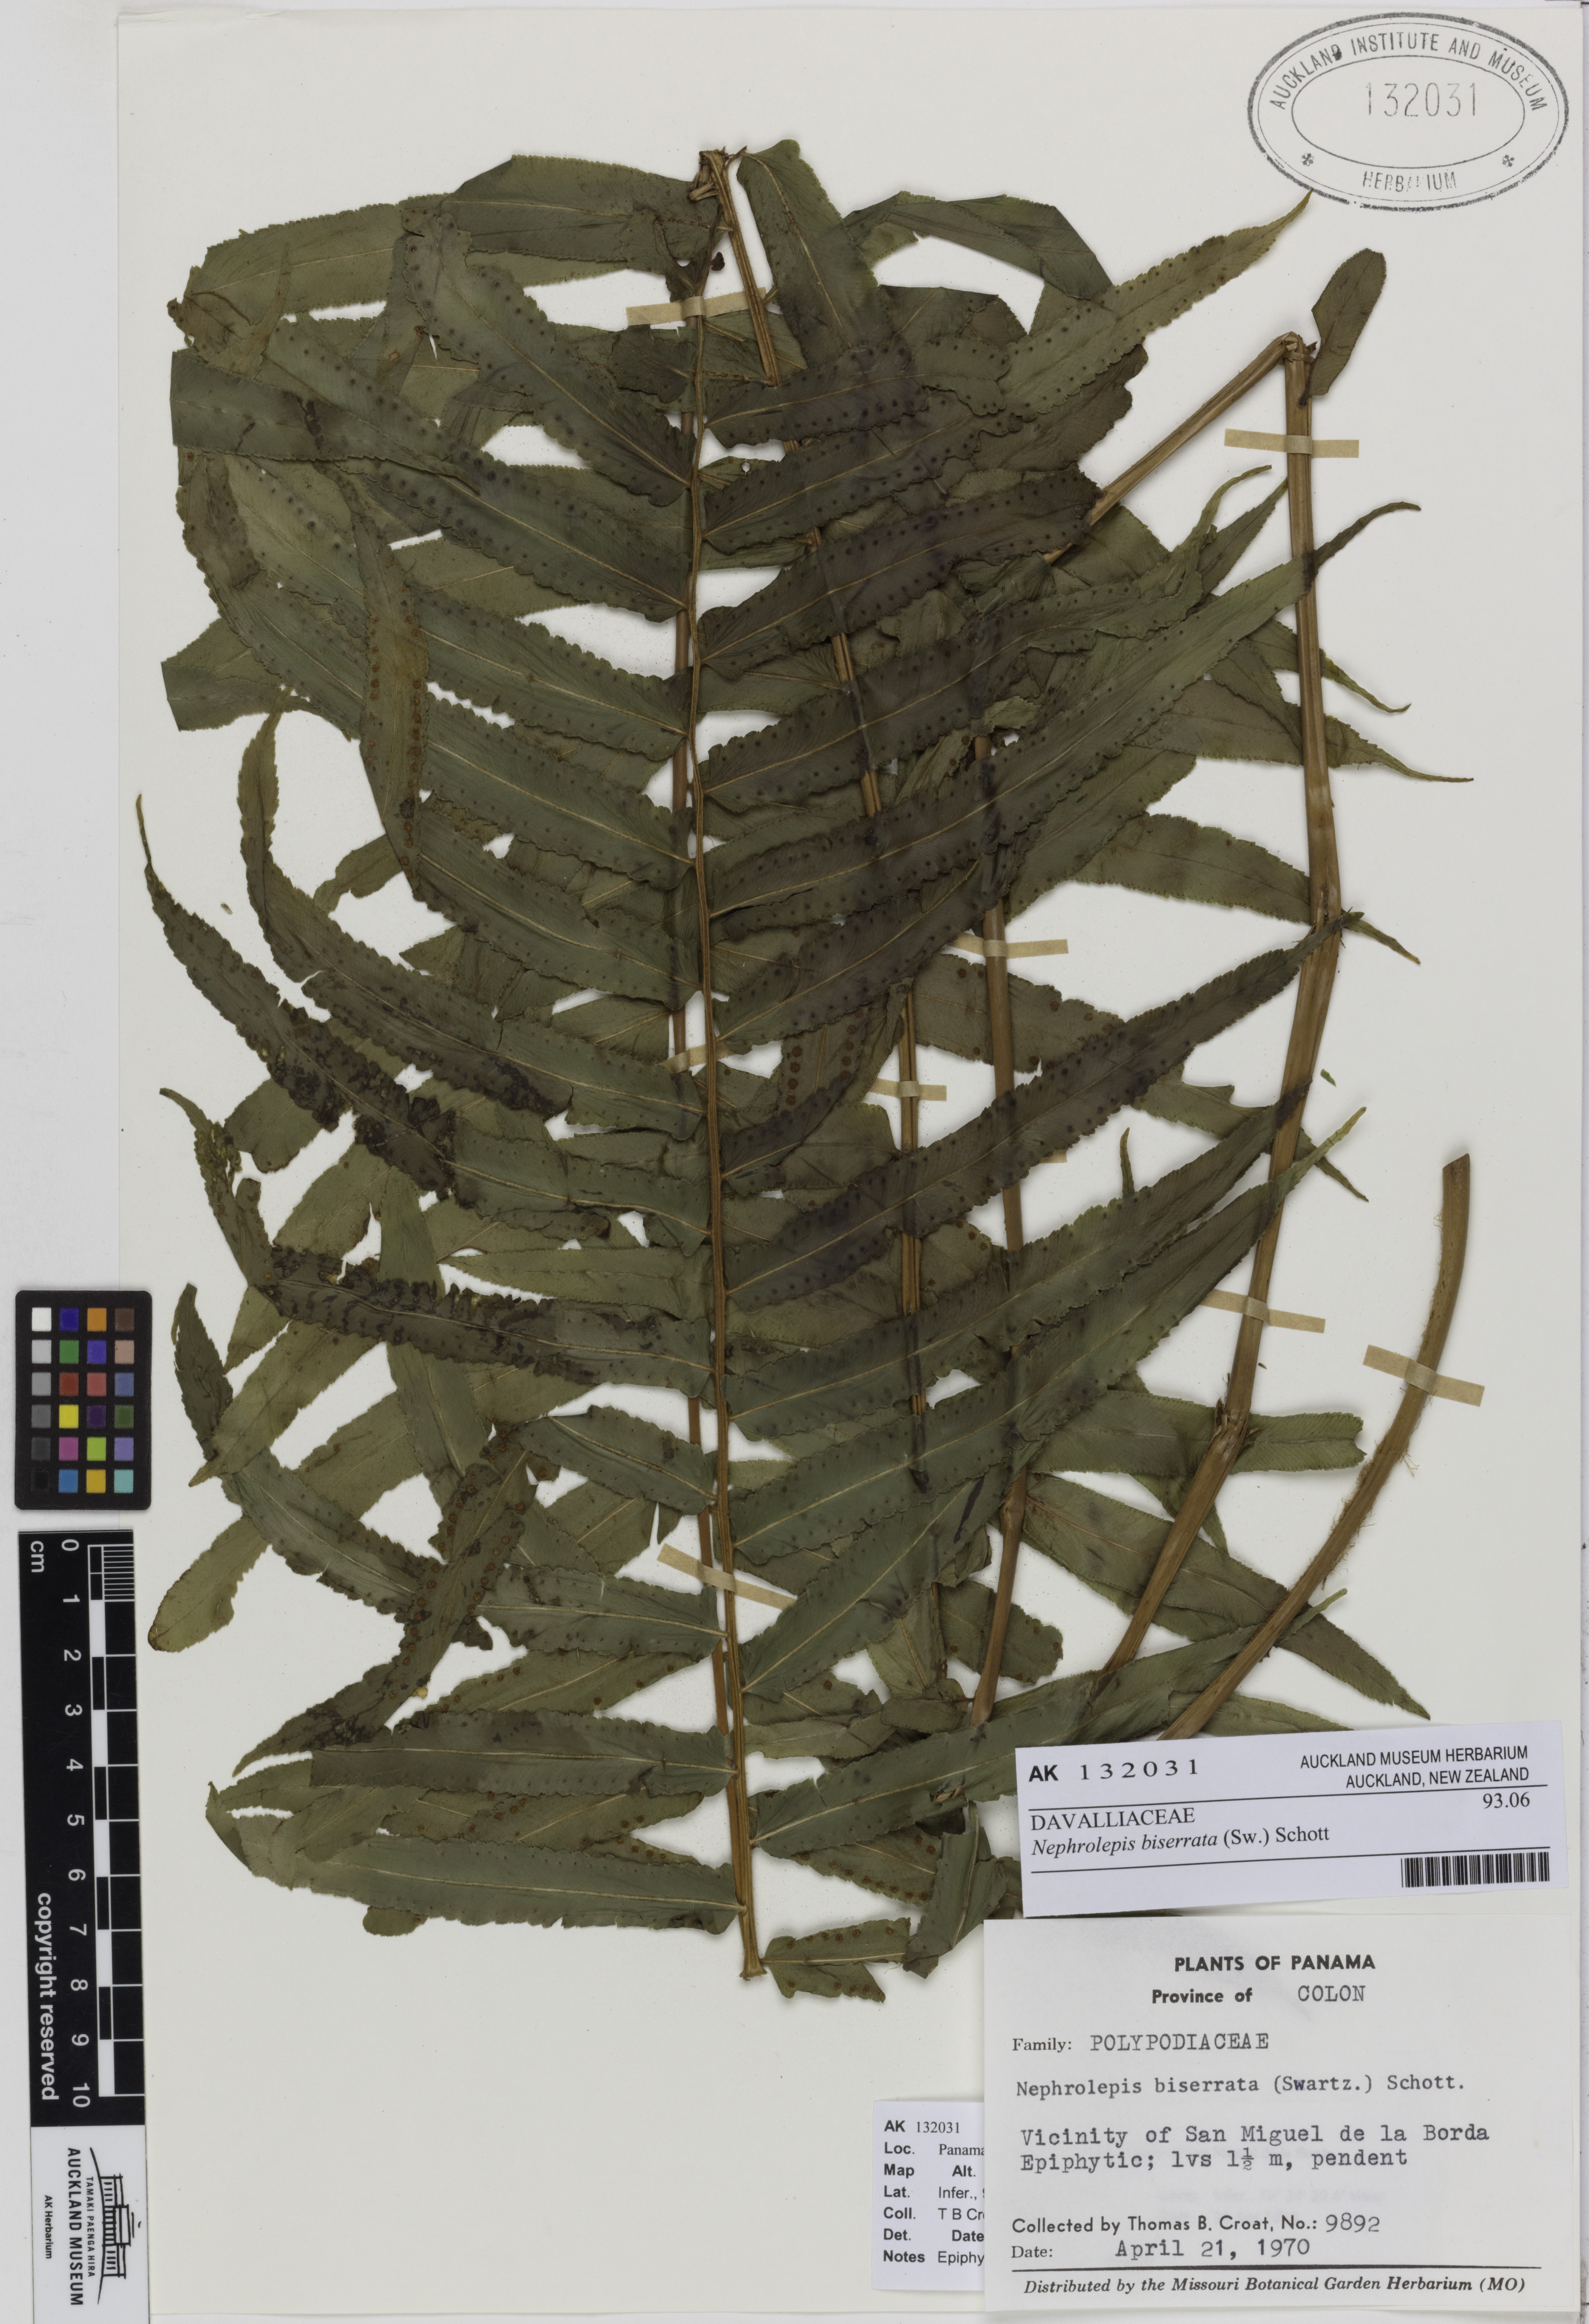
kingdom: Plantae
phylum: Tracheophyta
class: Polypodiopsida
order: Polypodiales
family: Nephrolepidaceae
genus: Nephrolepis
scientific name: Nephrolepis biserrata
